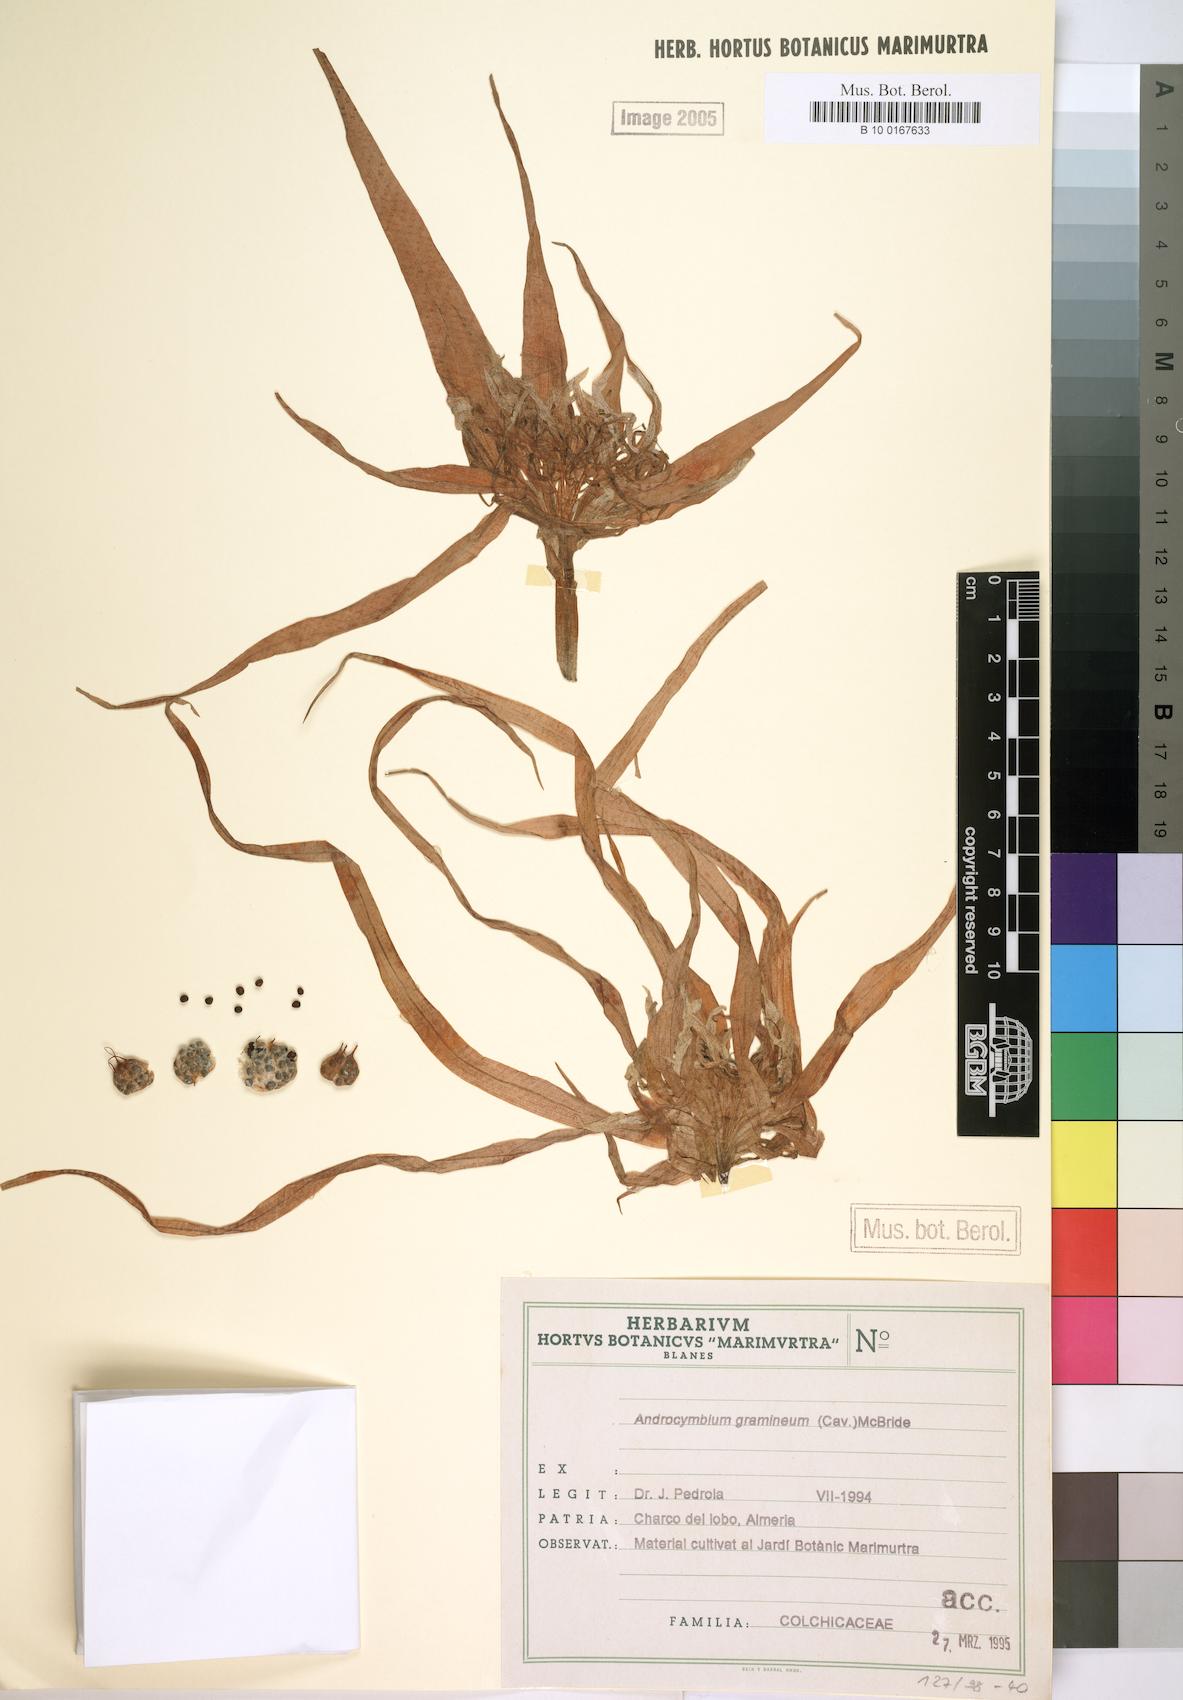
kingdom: Plantae
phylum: Tracheophyta
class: Liliopsida
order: Liliales
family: Colchicaceae
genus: Colchicum
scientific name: Colchicum gramineum
